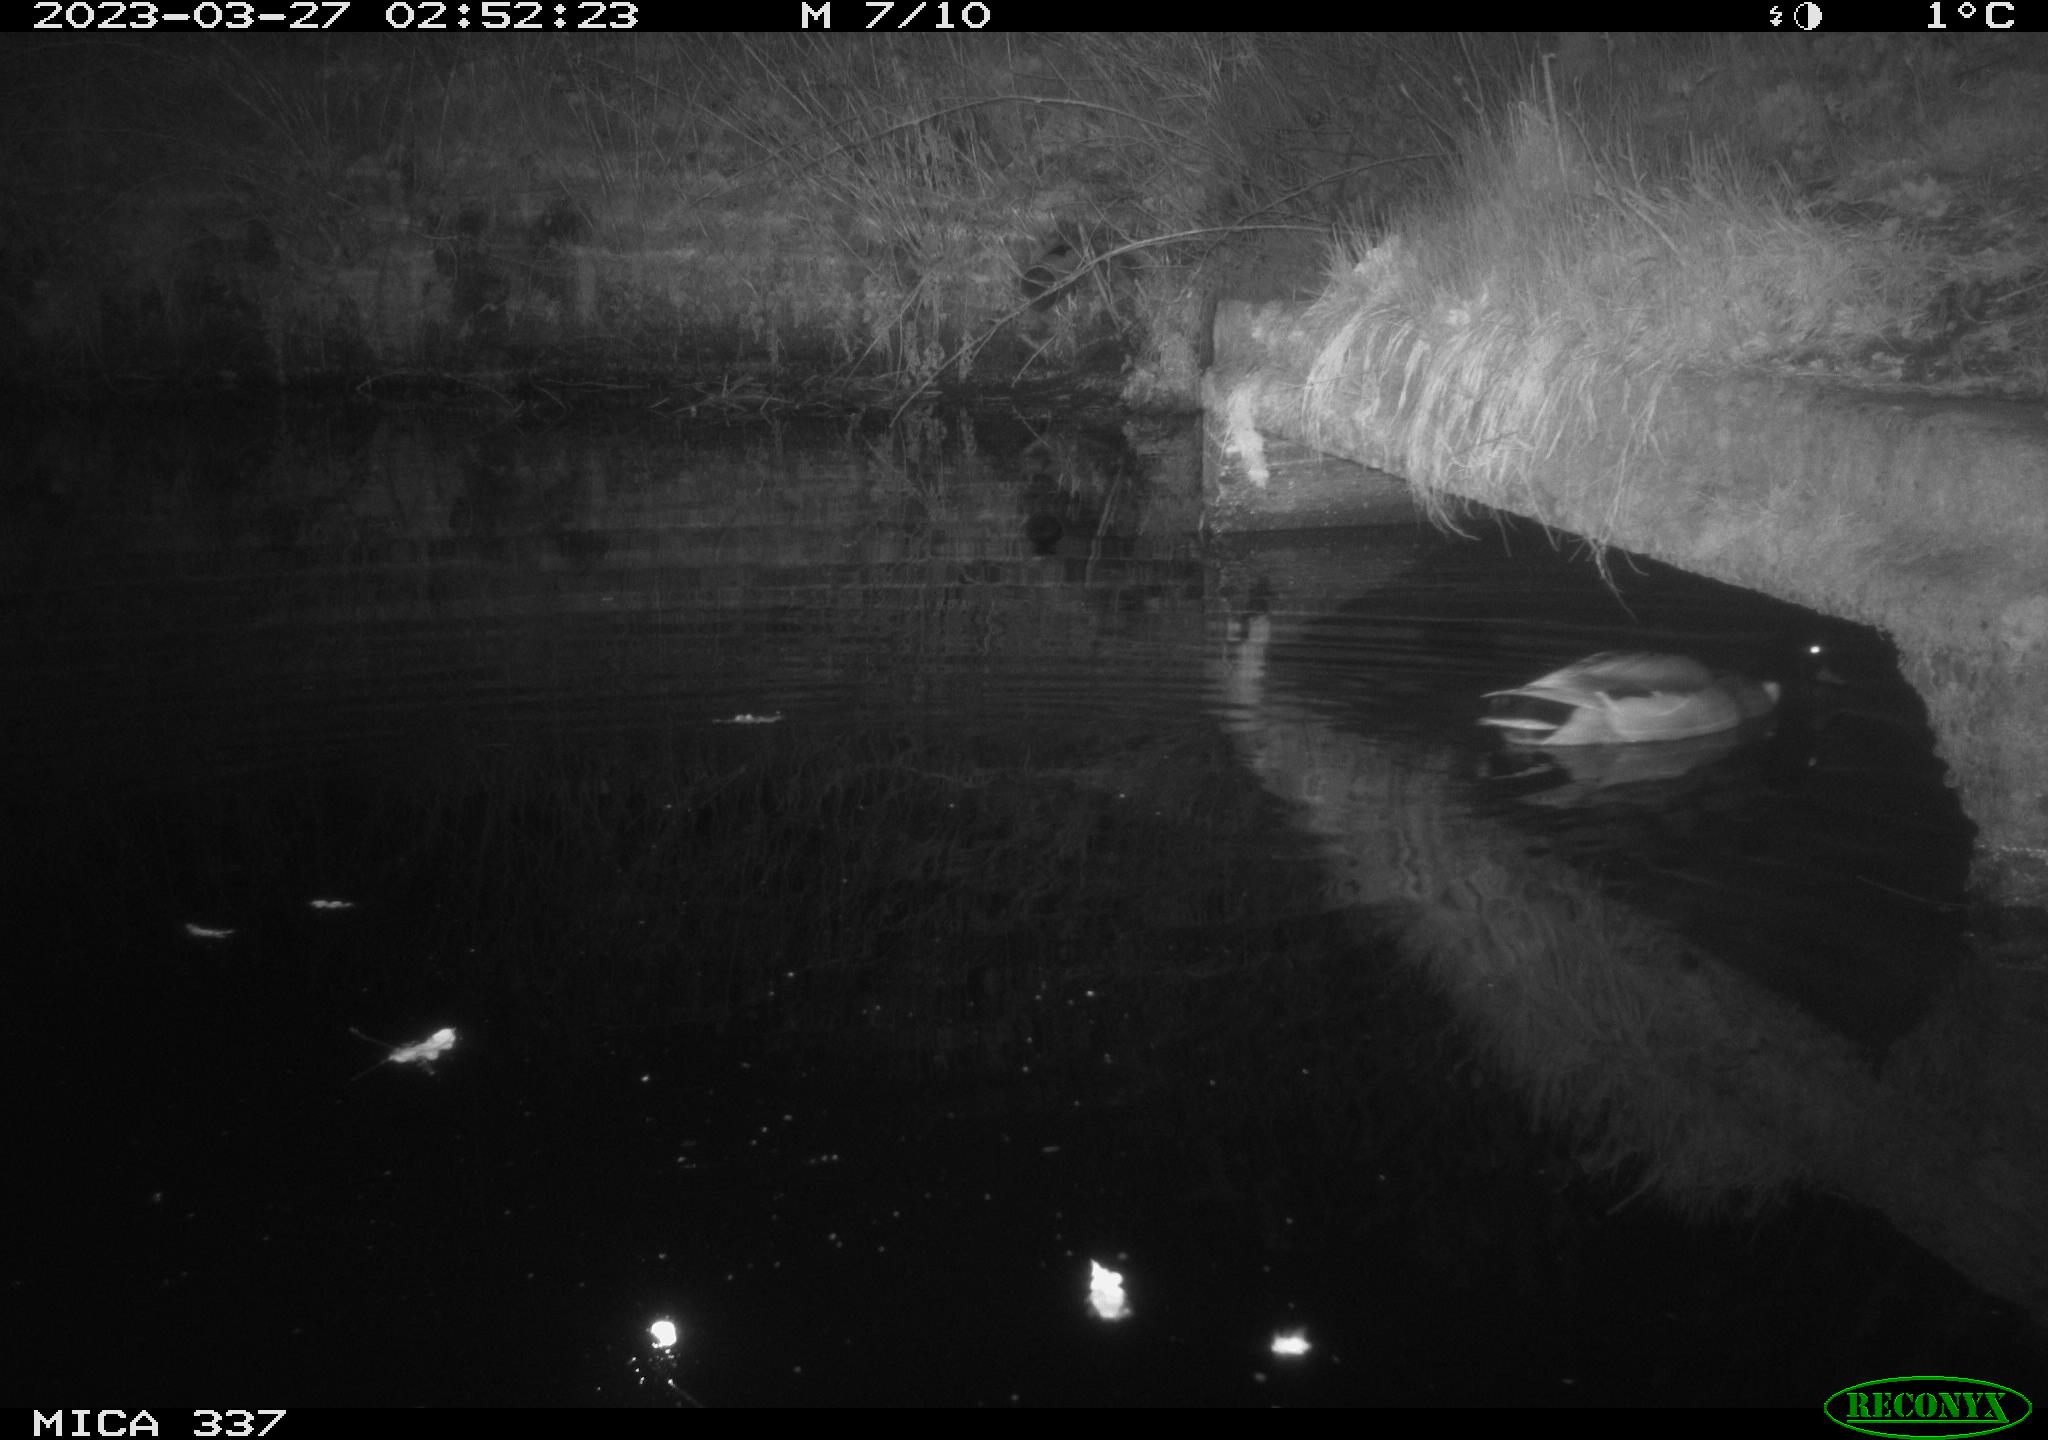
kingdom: Animalia
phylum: Chordata
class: Aves
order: Anseriformes
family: Anatidae
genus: Anas
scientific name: Anas
